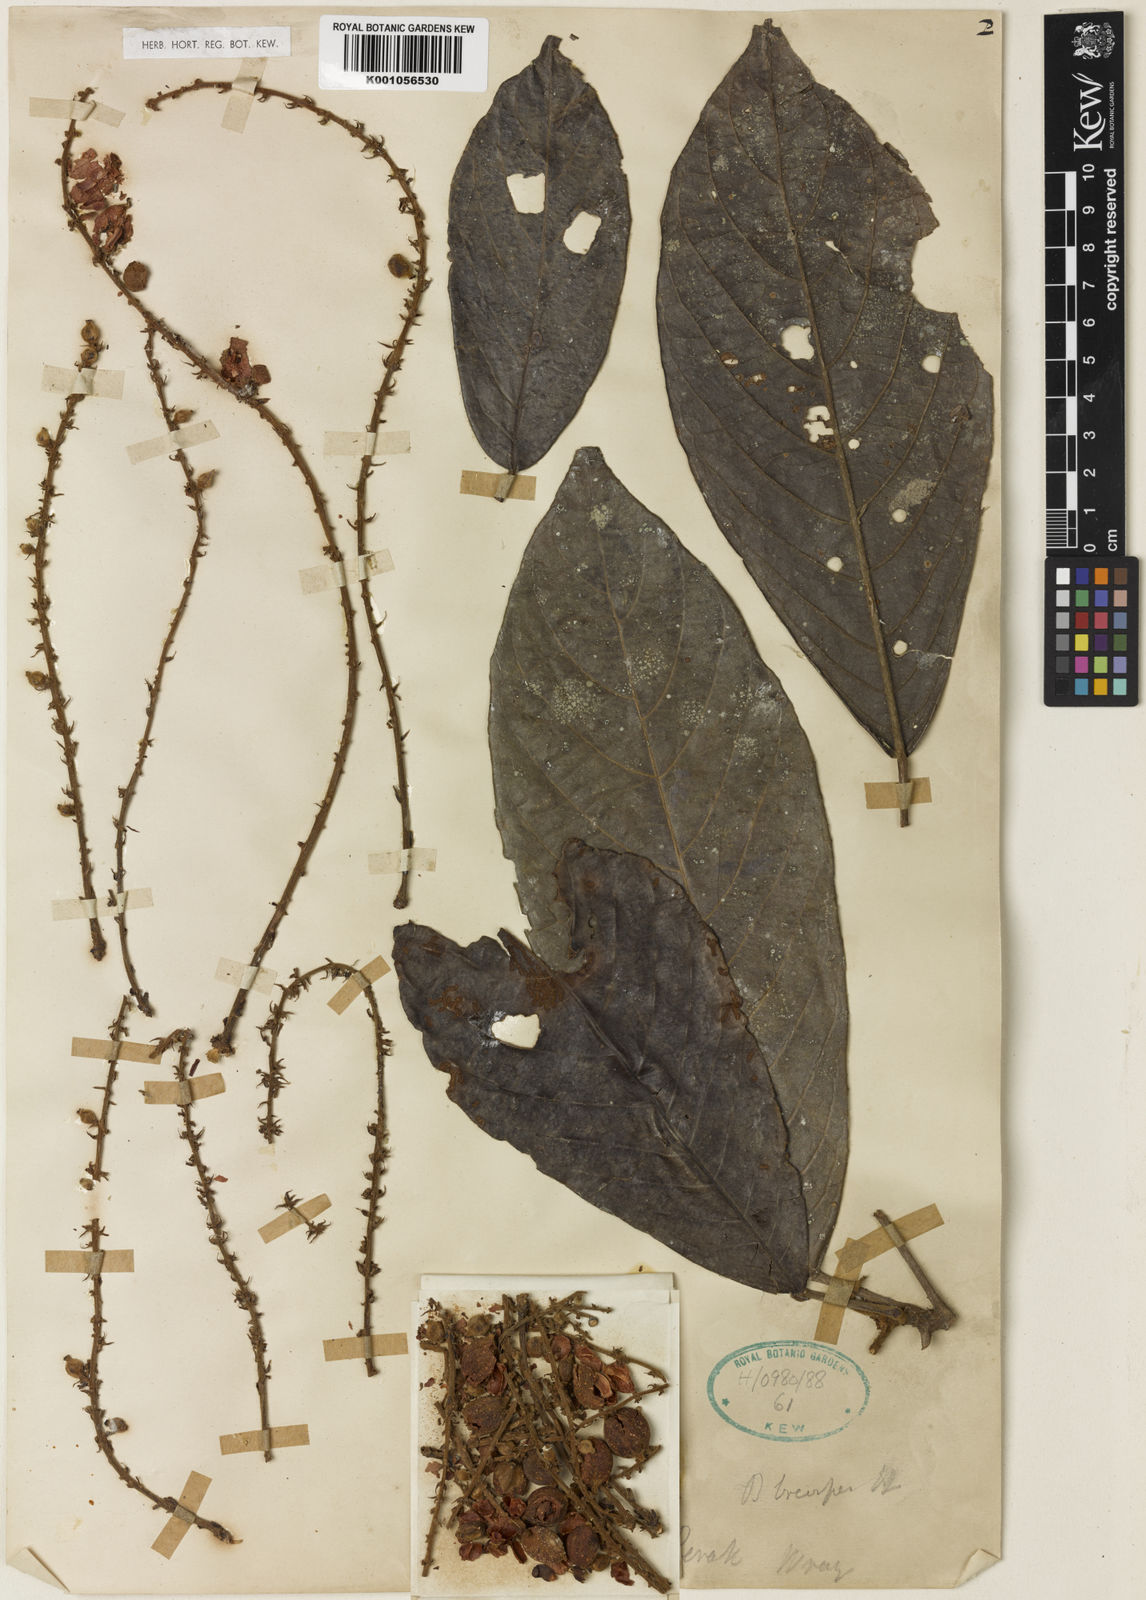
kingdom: Plantae
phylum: Tracheophyta
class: Magnoliopsida
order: Malpighiales
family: Phyllanthaceae
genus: Baccaurea
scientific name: Baccaurea brevipes
